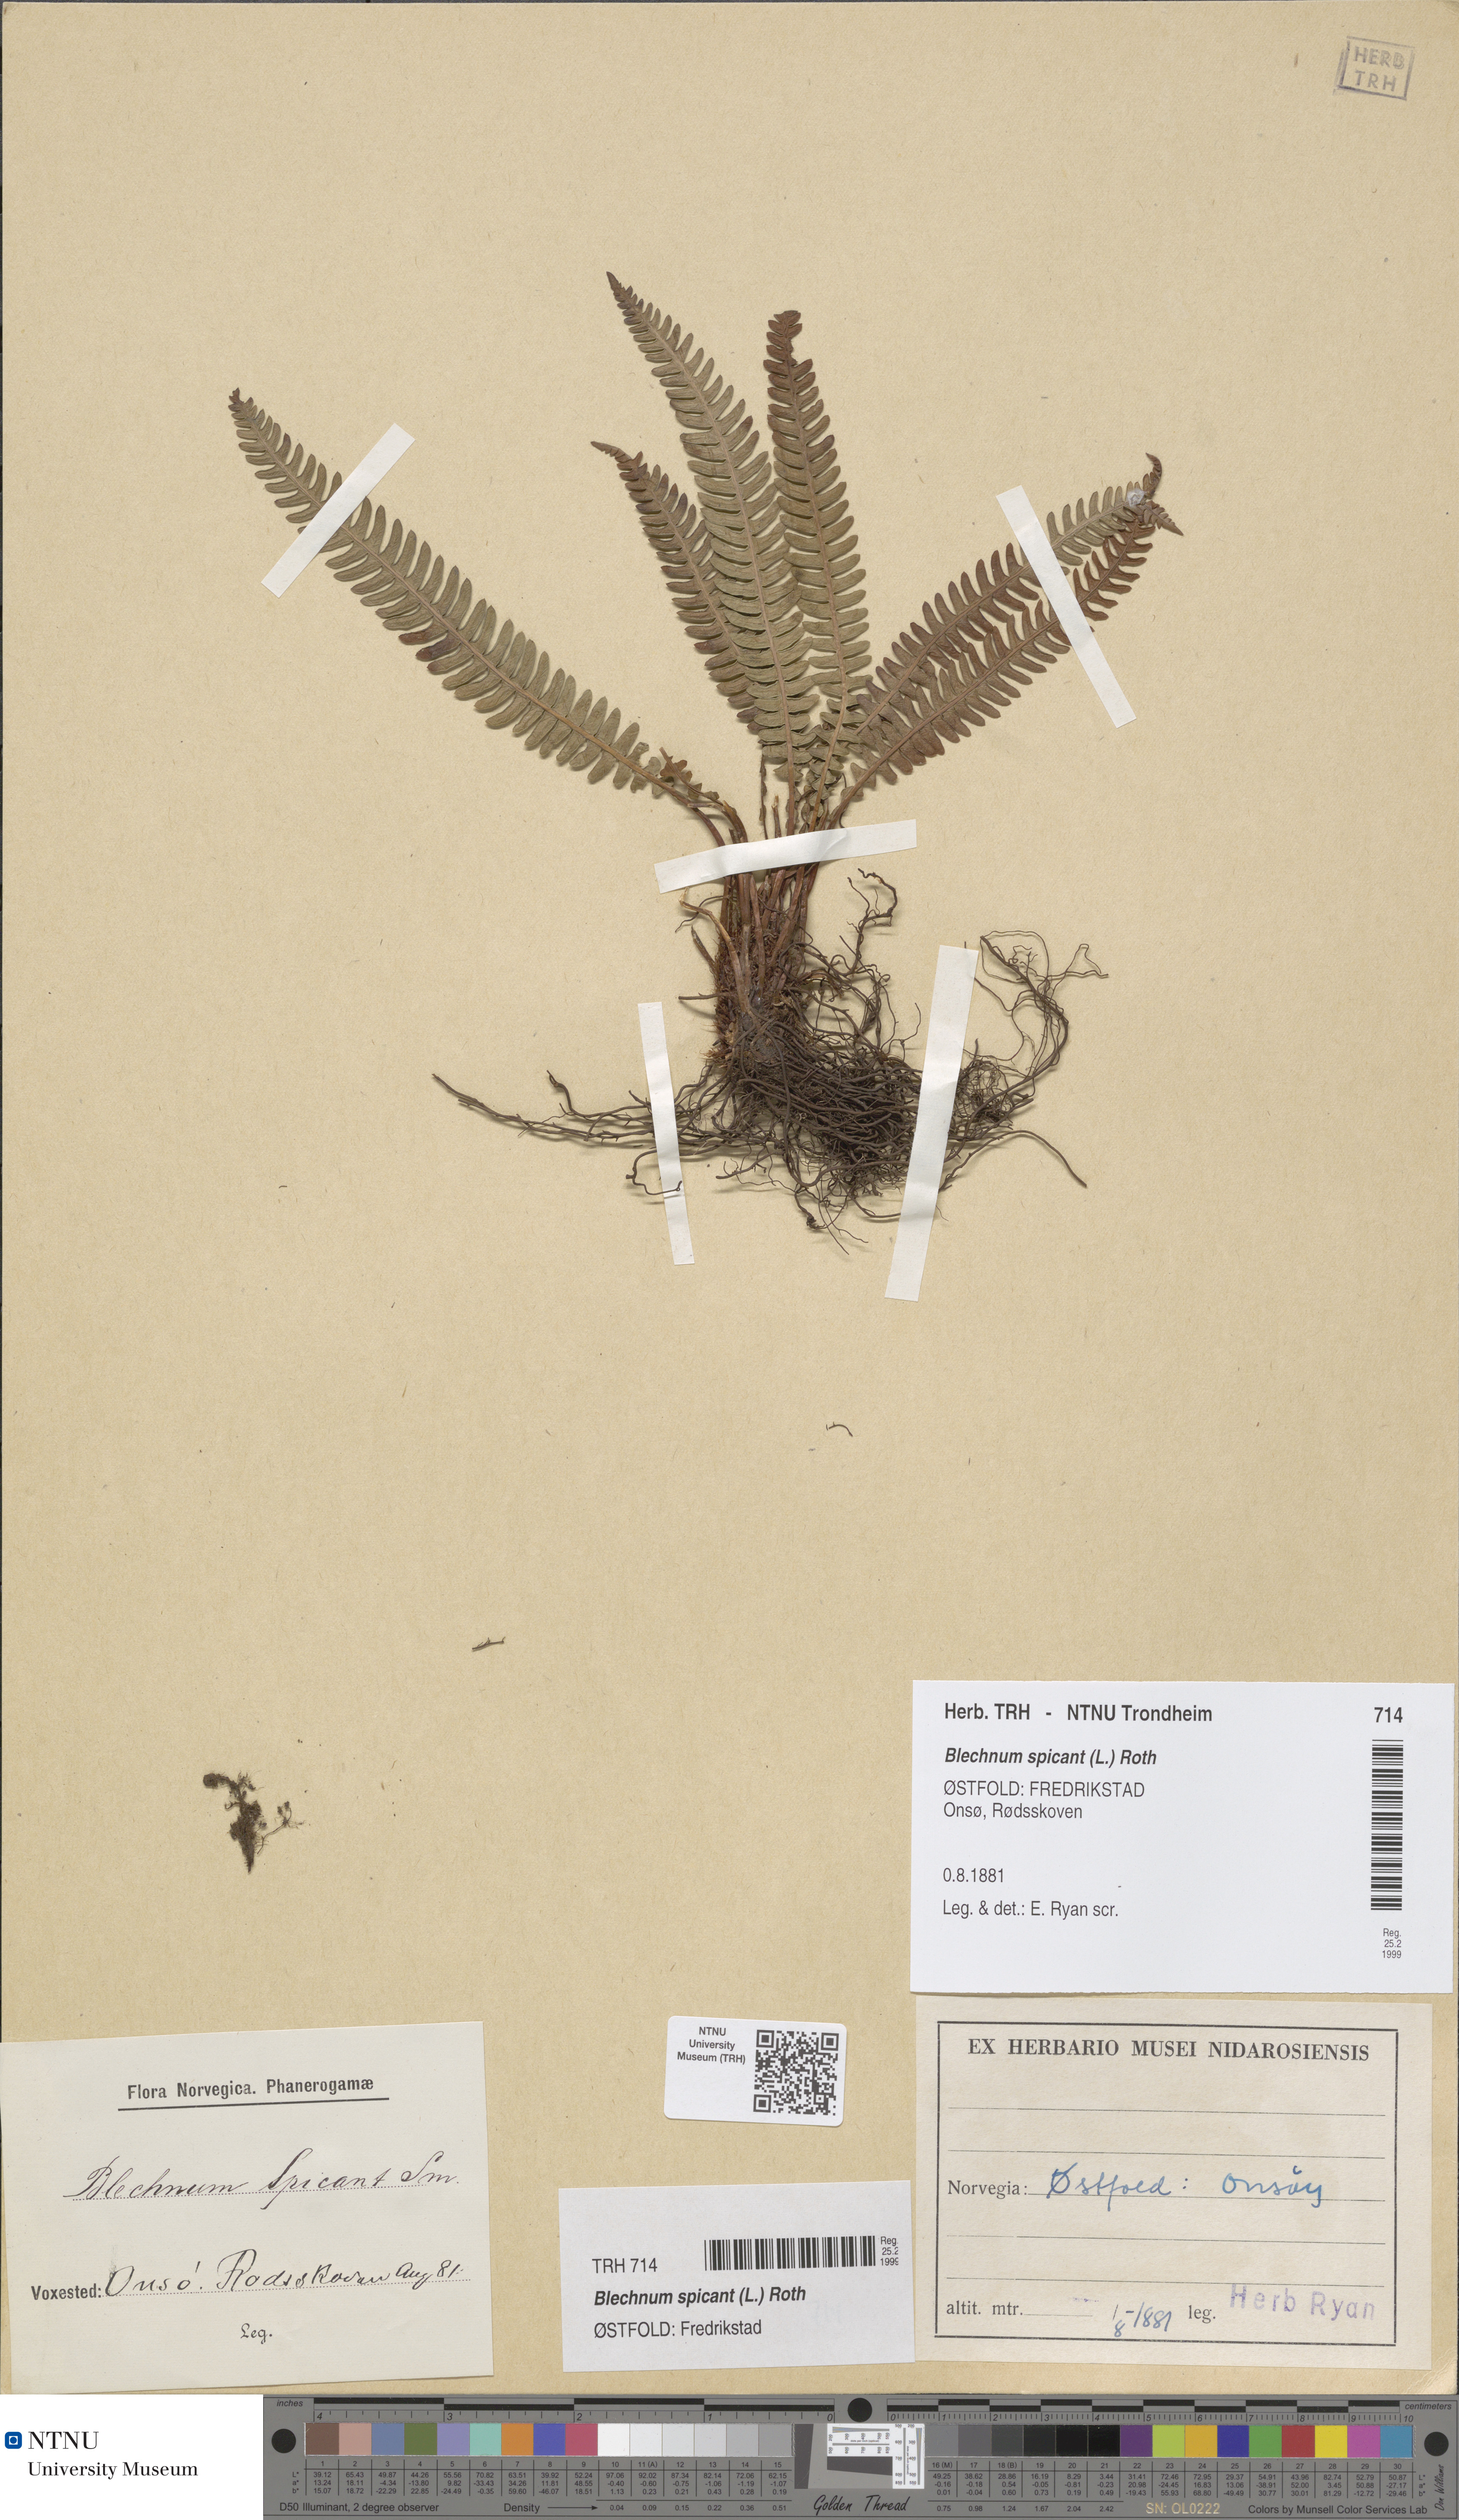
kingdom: Plantae
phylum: Tracheophyta
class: Polypodiopsida
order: Polypodiales
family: Blechnaceae
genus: Struthiopteris
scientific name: Struthiopteris spicant
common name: Deer fern
